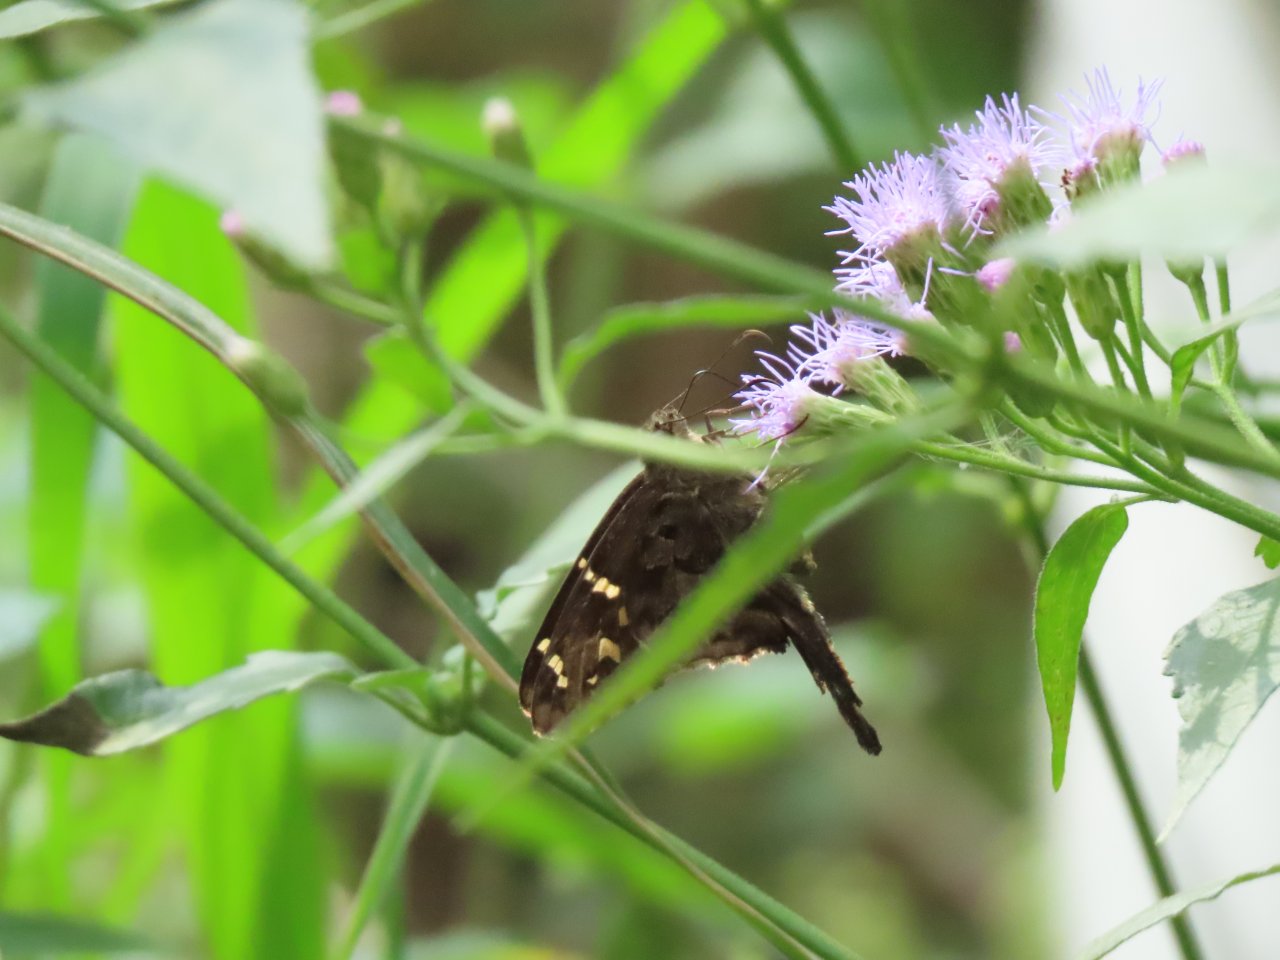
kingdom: Animalia
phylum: Arthropoda
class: Insecta
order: Lepidoptera
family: Hesperiidae
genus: Urbanus
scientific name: Urbanus dorantes
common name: Dorantes Longtail
